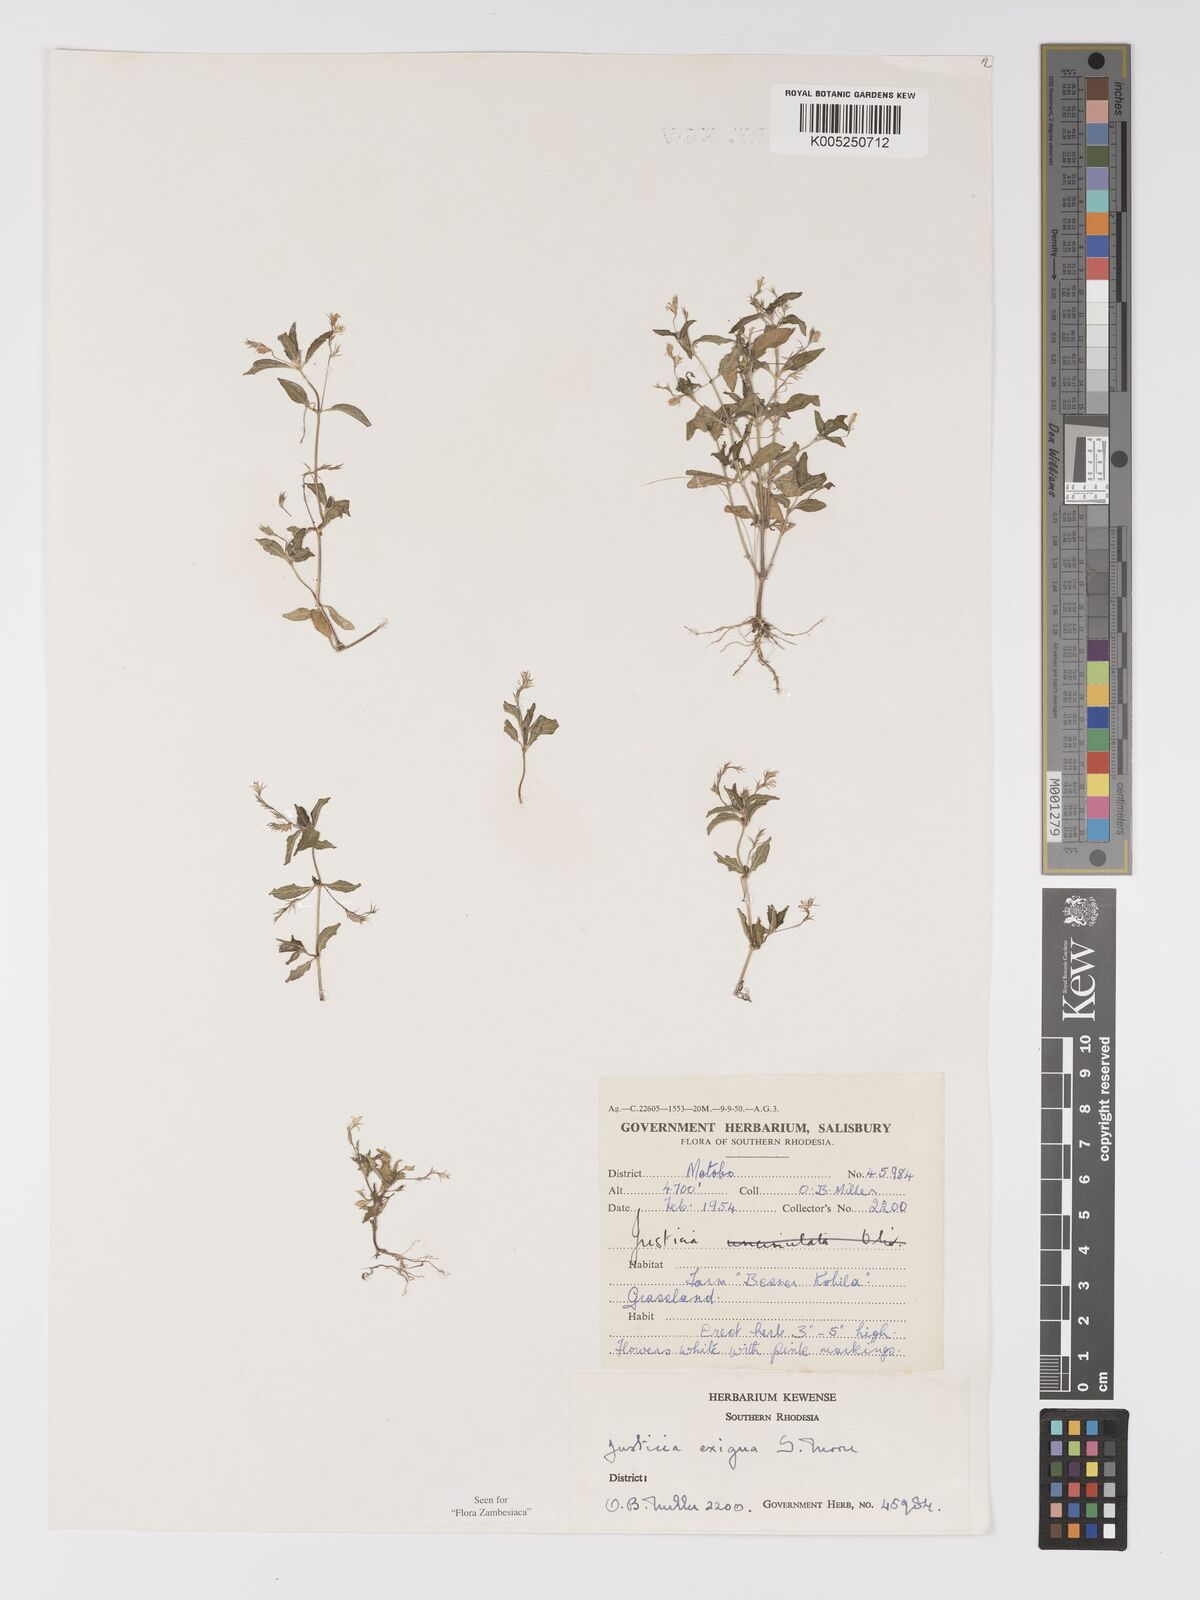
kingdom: Plantae
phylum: Tracheophyta
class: Magnoliopsida
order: Lamiales
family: Acanthaceae
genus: Justicia
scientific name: Justicia exigua
